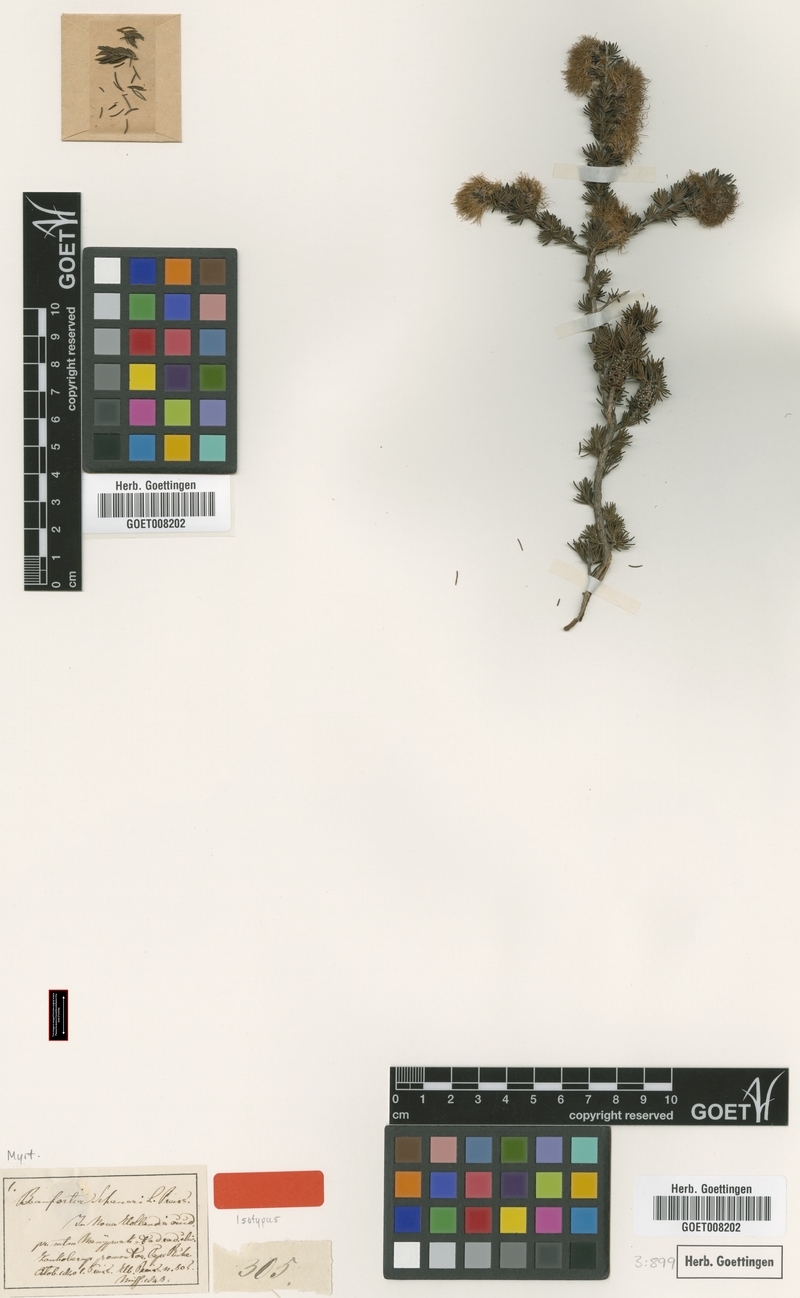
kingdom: Plantae
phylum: Tracheophyta
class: Magnoliopsida
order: Myrtales
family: Myrtaceae
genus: Melaleuca
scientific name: Melaleuca jonesii
